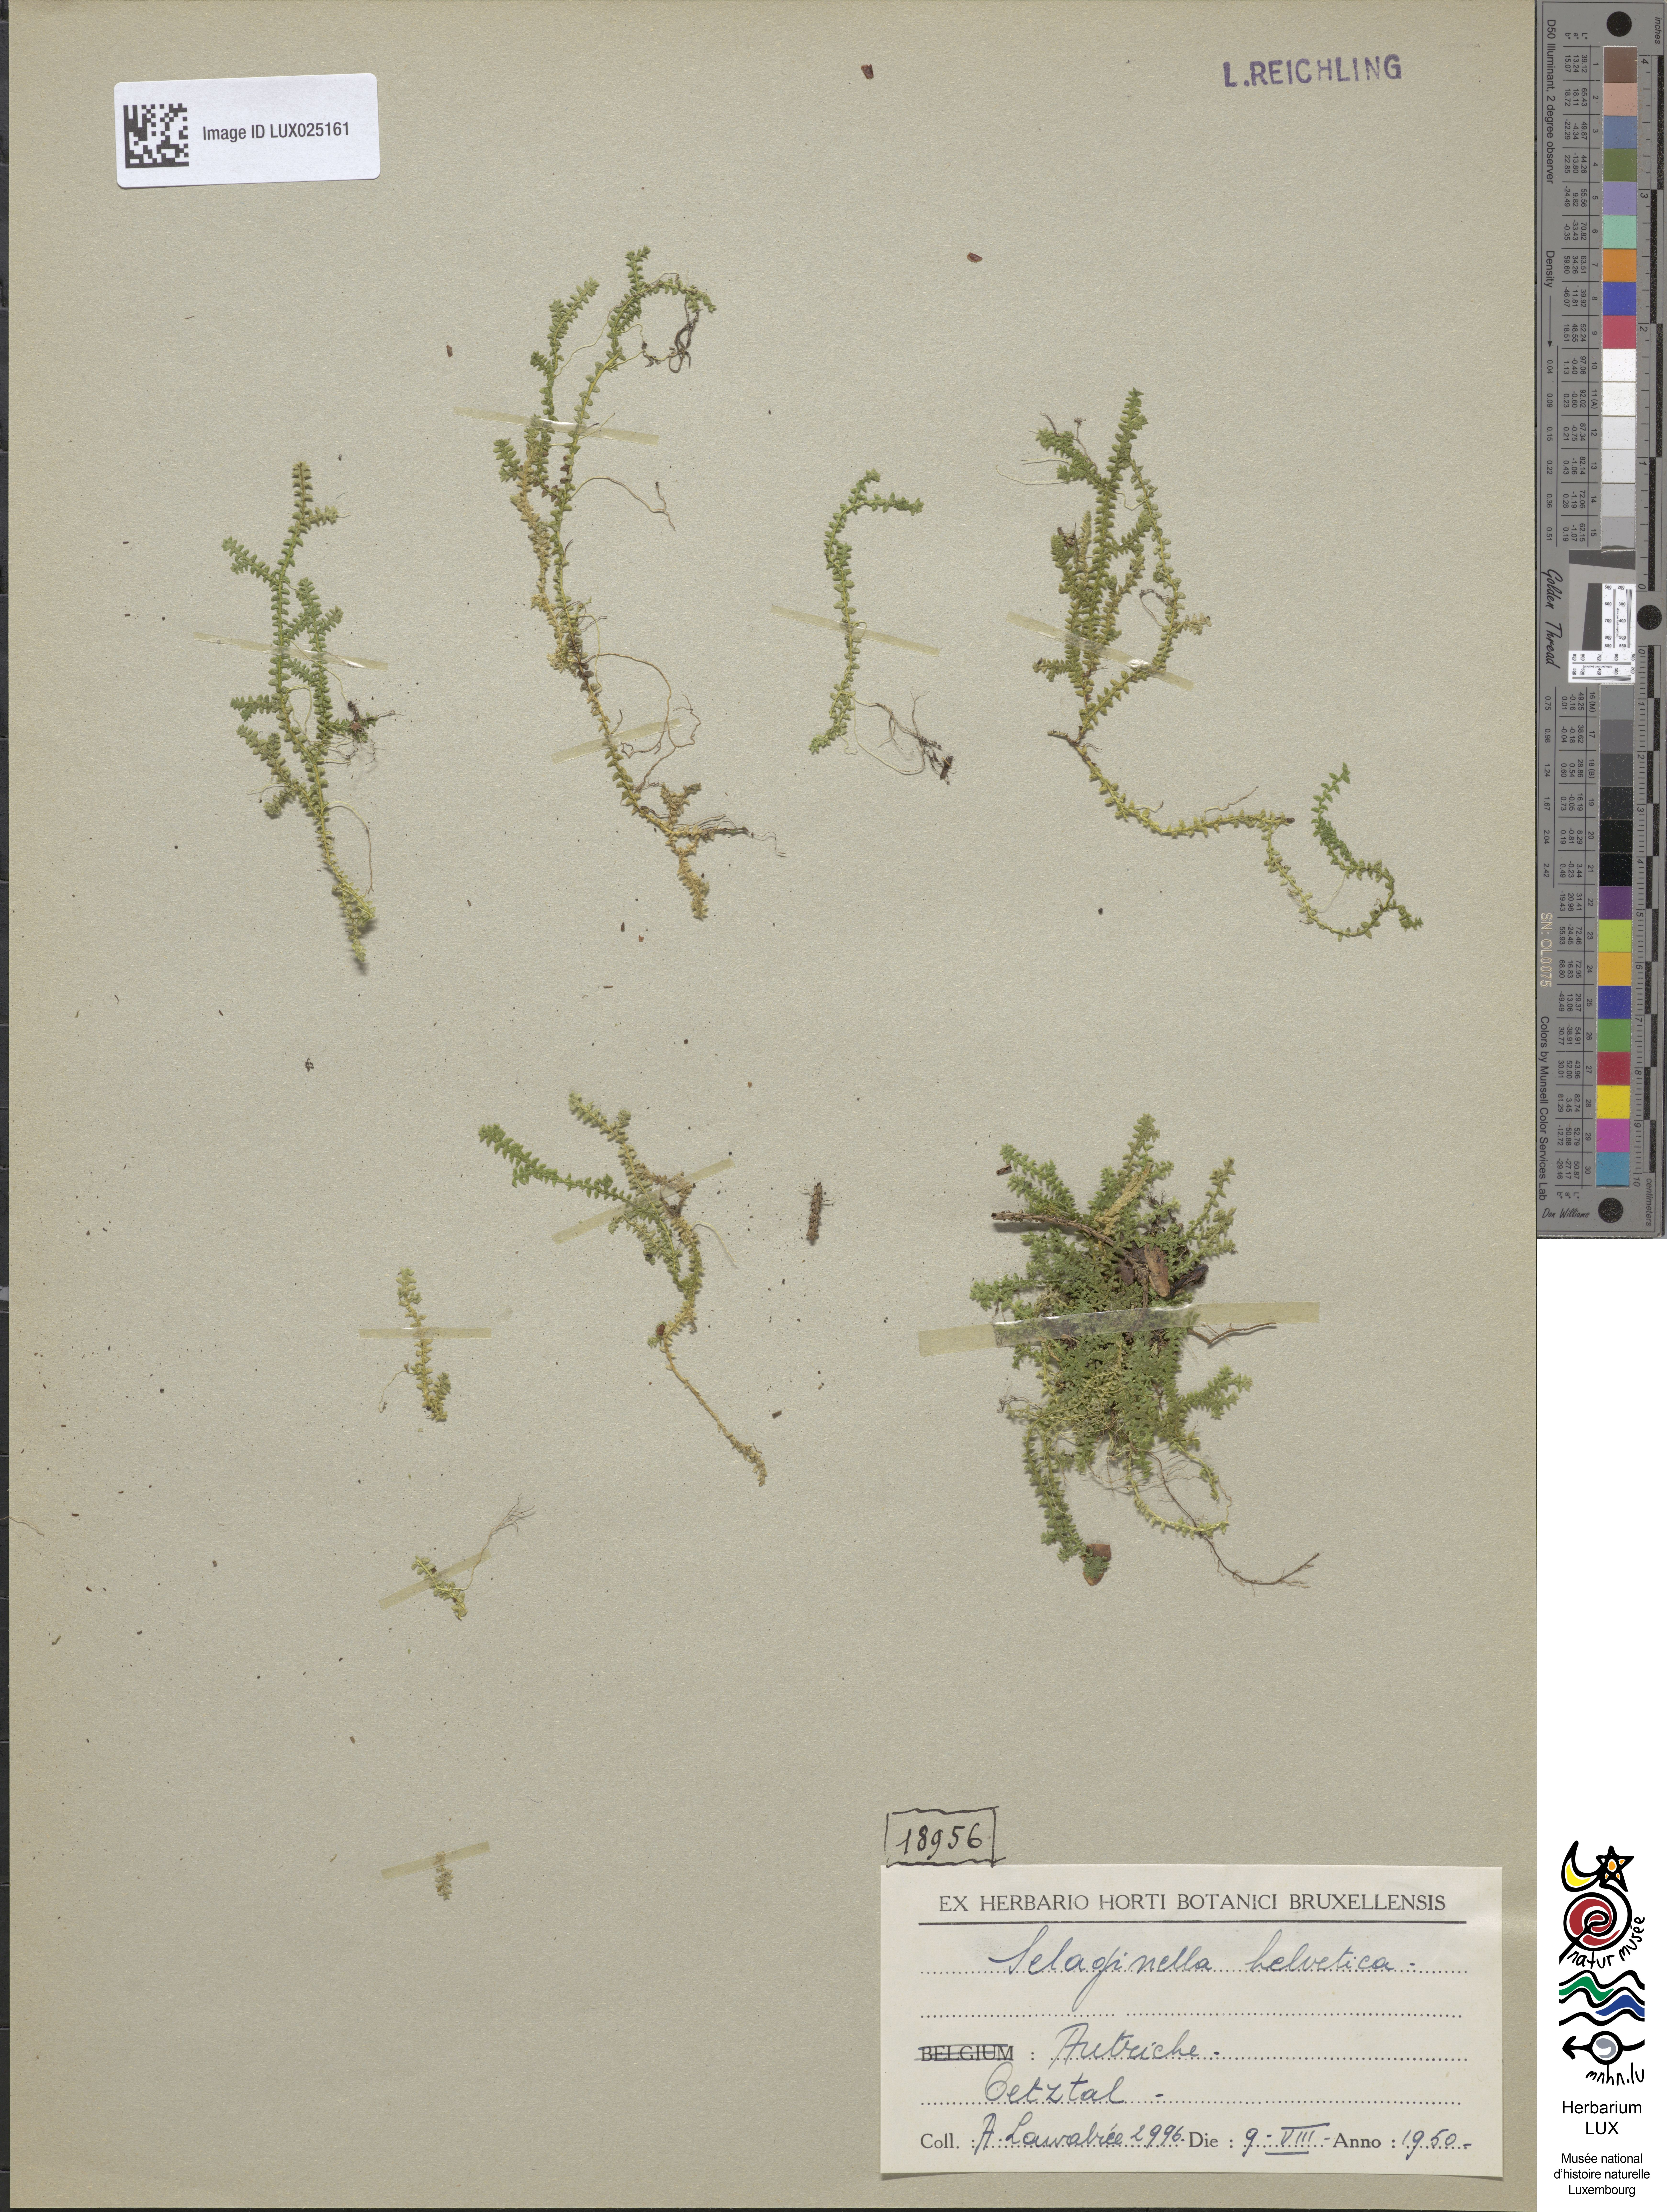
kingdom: Plantae
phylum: Tracheophyta
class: Lycopodiopsida
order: Selaginellales
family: Selaginellaceae
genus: Selaginella
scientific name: Selaginella helvetica
